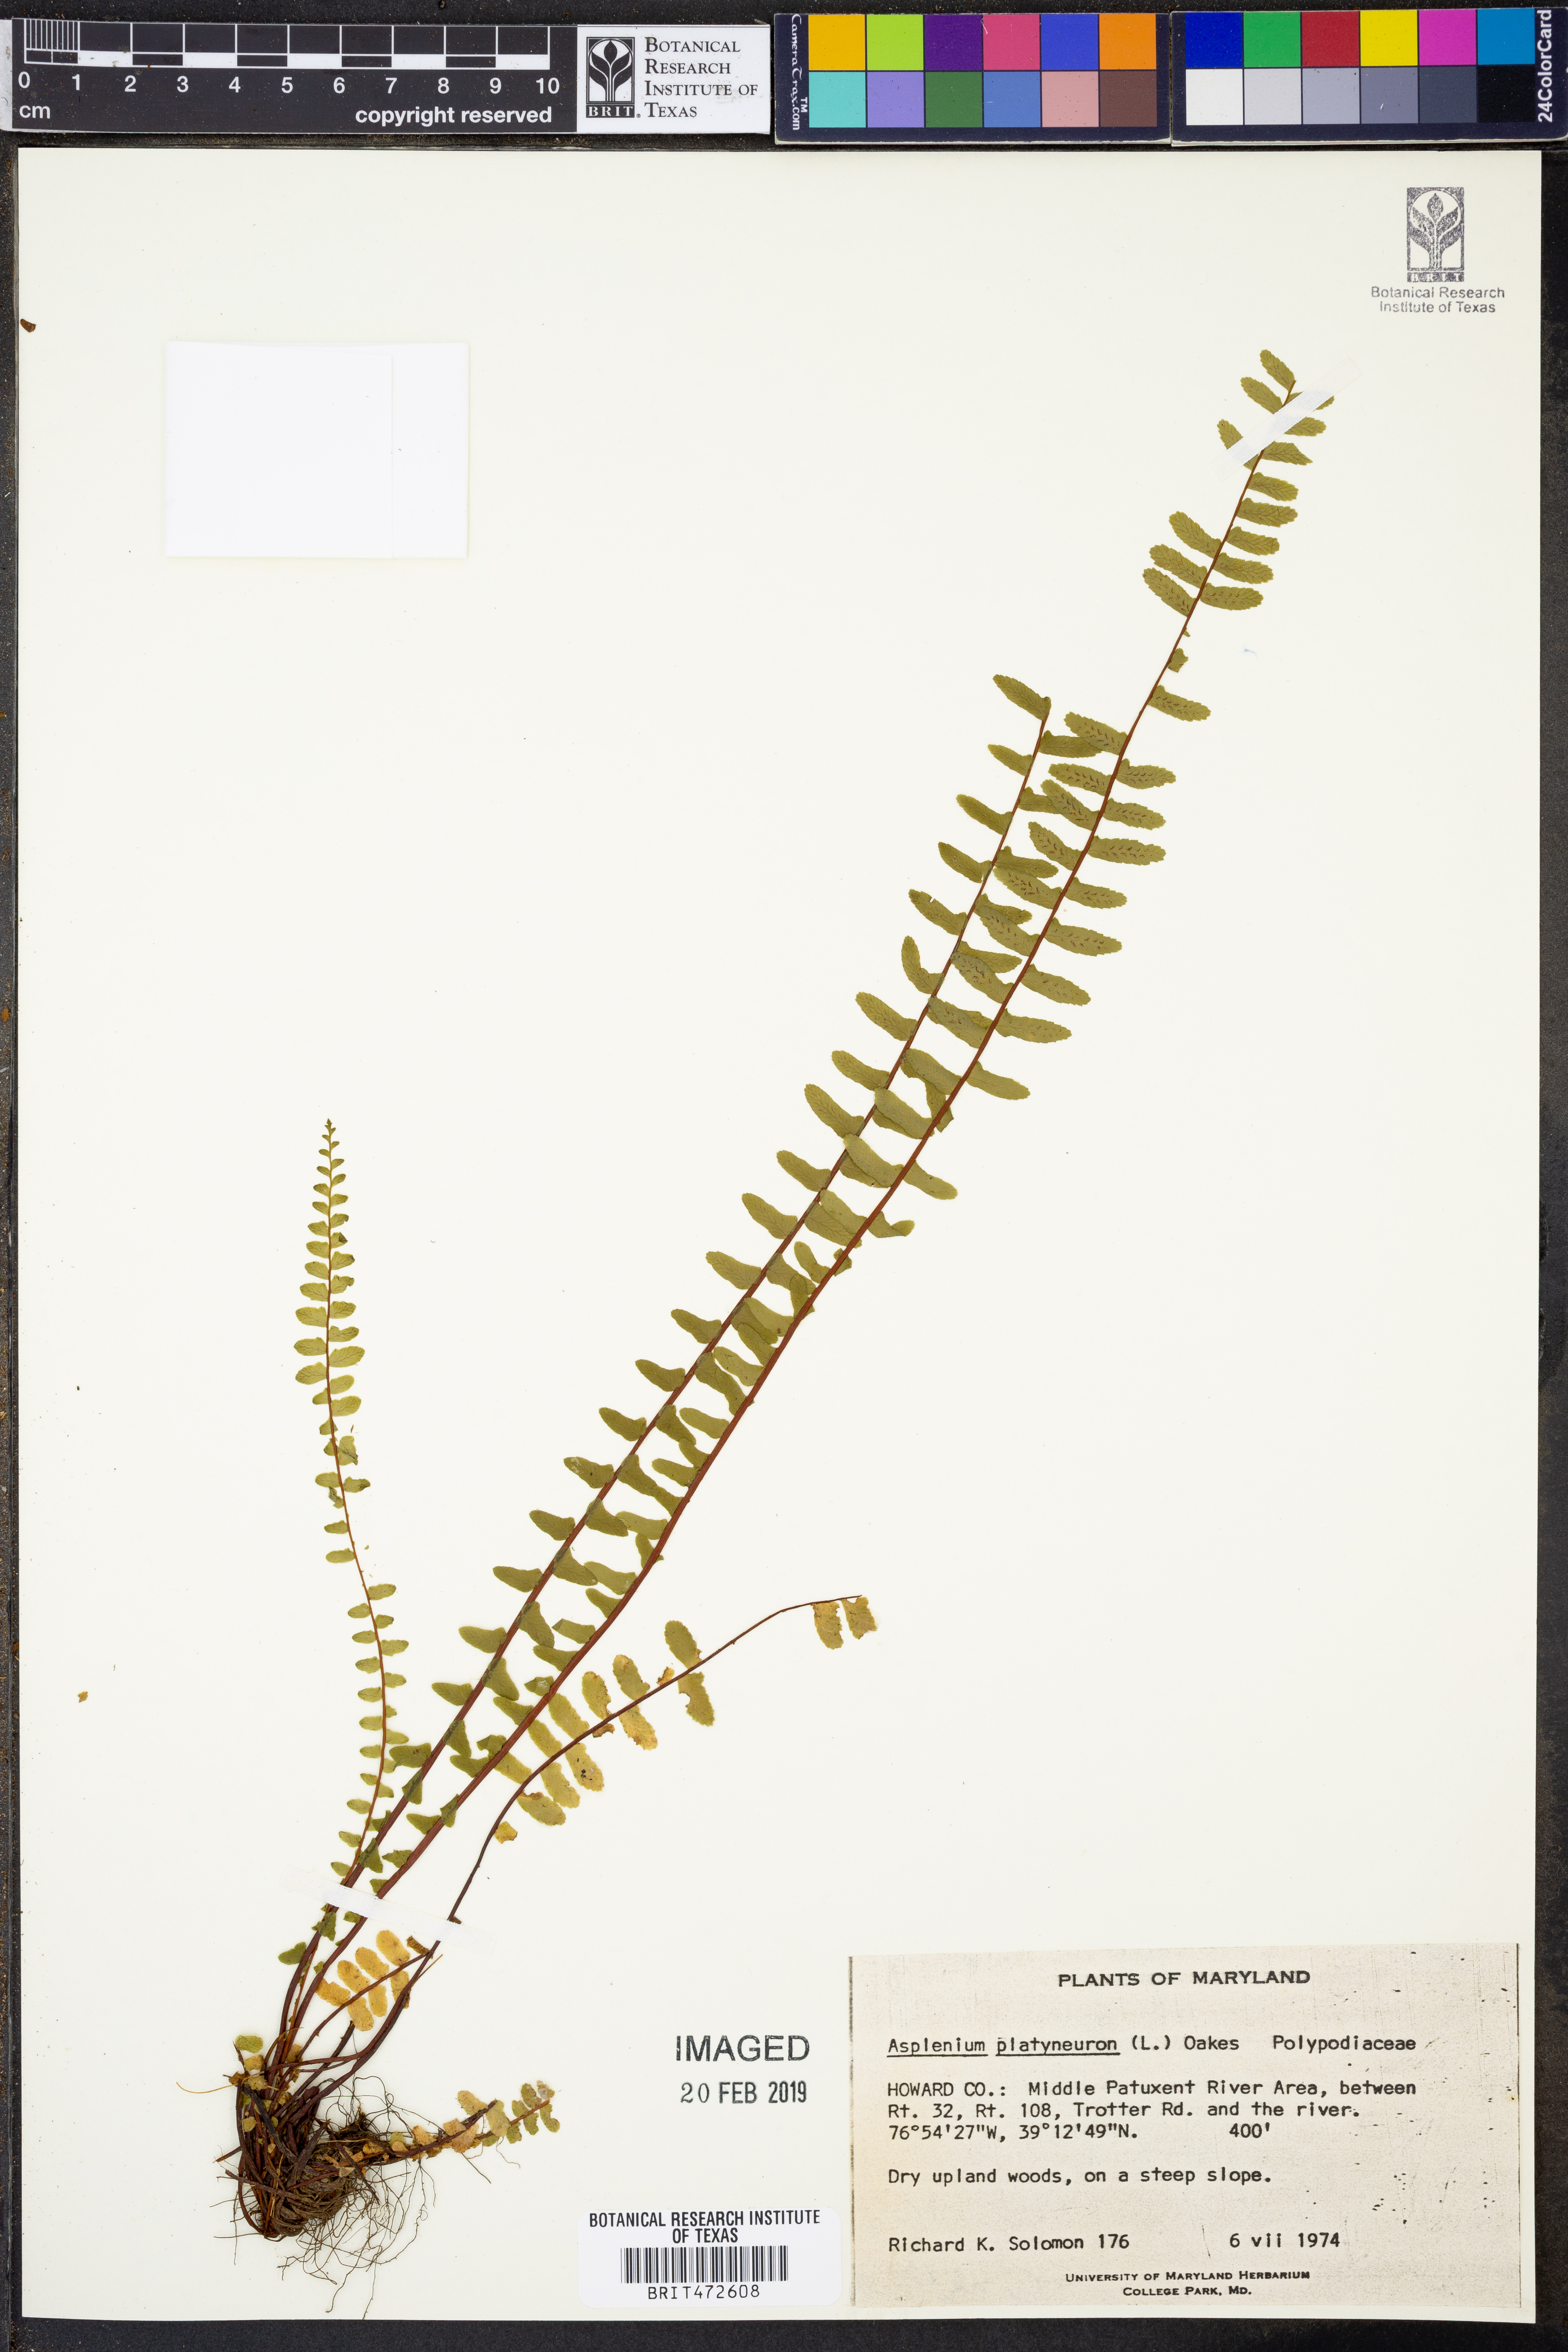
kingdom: Plantae
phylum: Tracheophyta
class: Polypodiopsida
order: Polypodiales
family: Aspleniaceae
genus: Asplenium
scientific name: Asplenium platyneuron
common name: Ebony spleenwort
